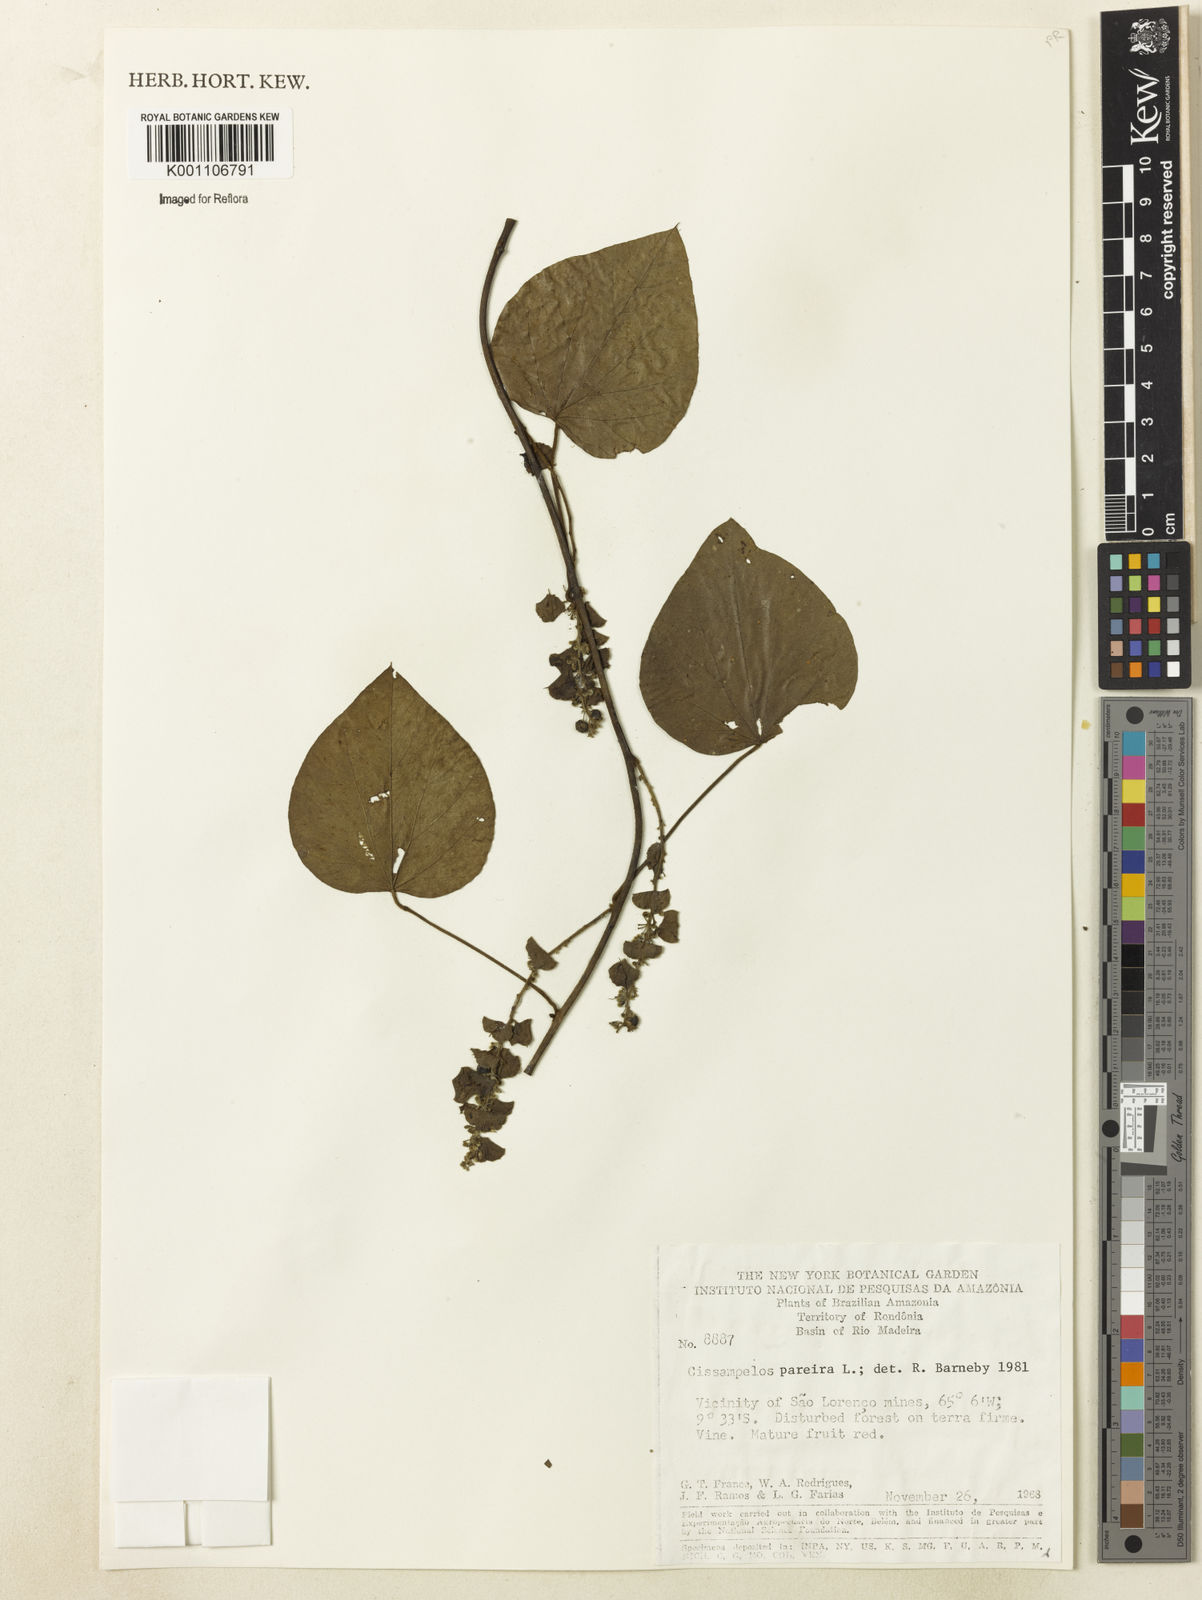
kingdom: Plantae
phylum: Tracheophyta
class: Magnoliopsida
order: Ranunculales
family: Menispermaceae
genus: Cissampelos
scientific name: Cissampelos pareira
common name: Velvetleaf
